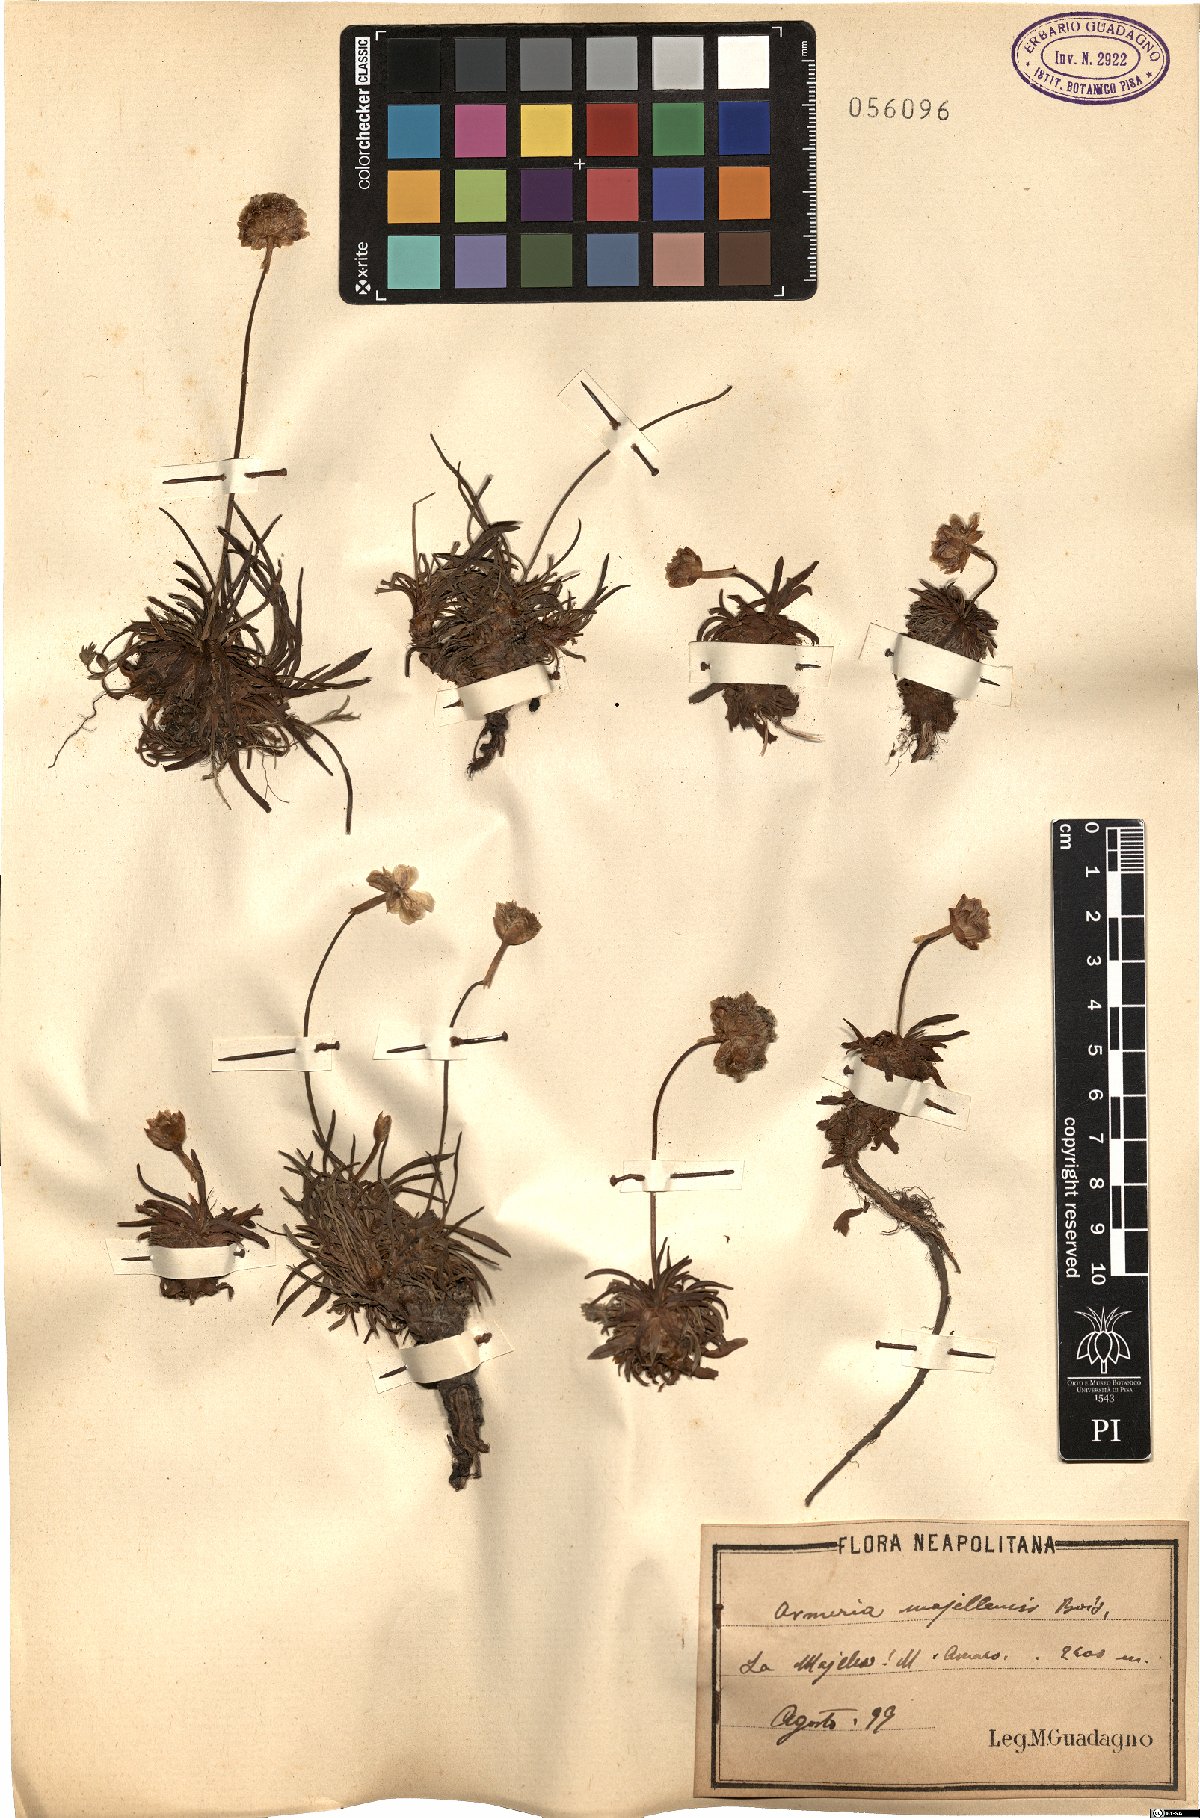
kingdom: Plantae
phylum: Tracheophyta
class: Magnoliopsida
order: Caryophyllales
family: Plumbaginaceae
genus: Armeria
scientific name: Armeria nebrodensis
